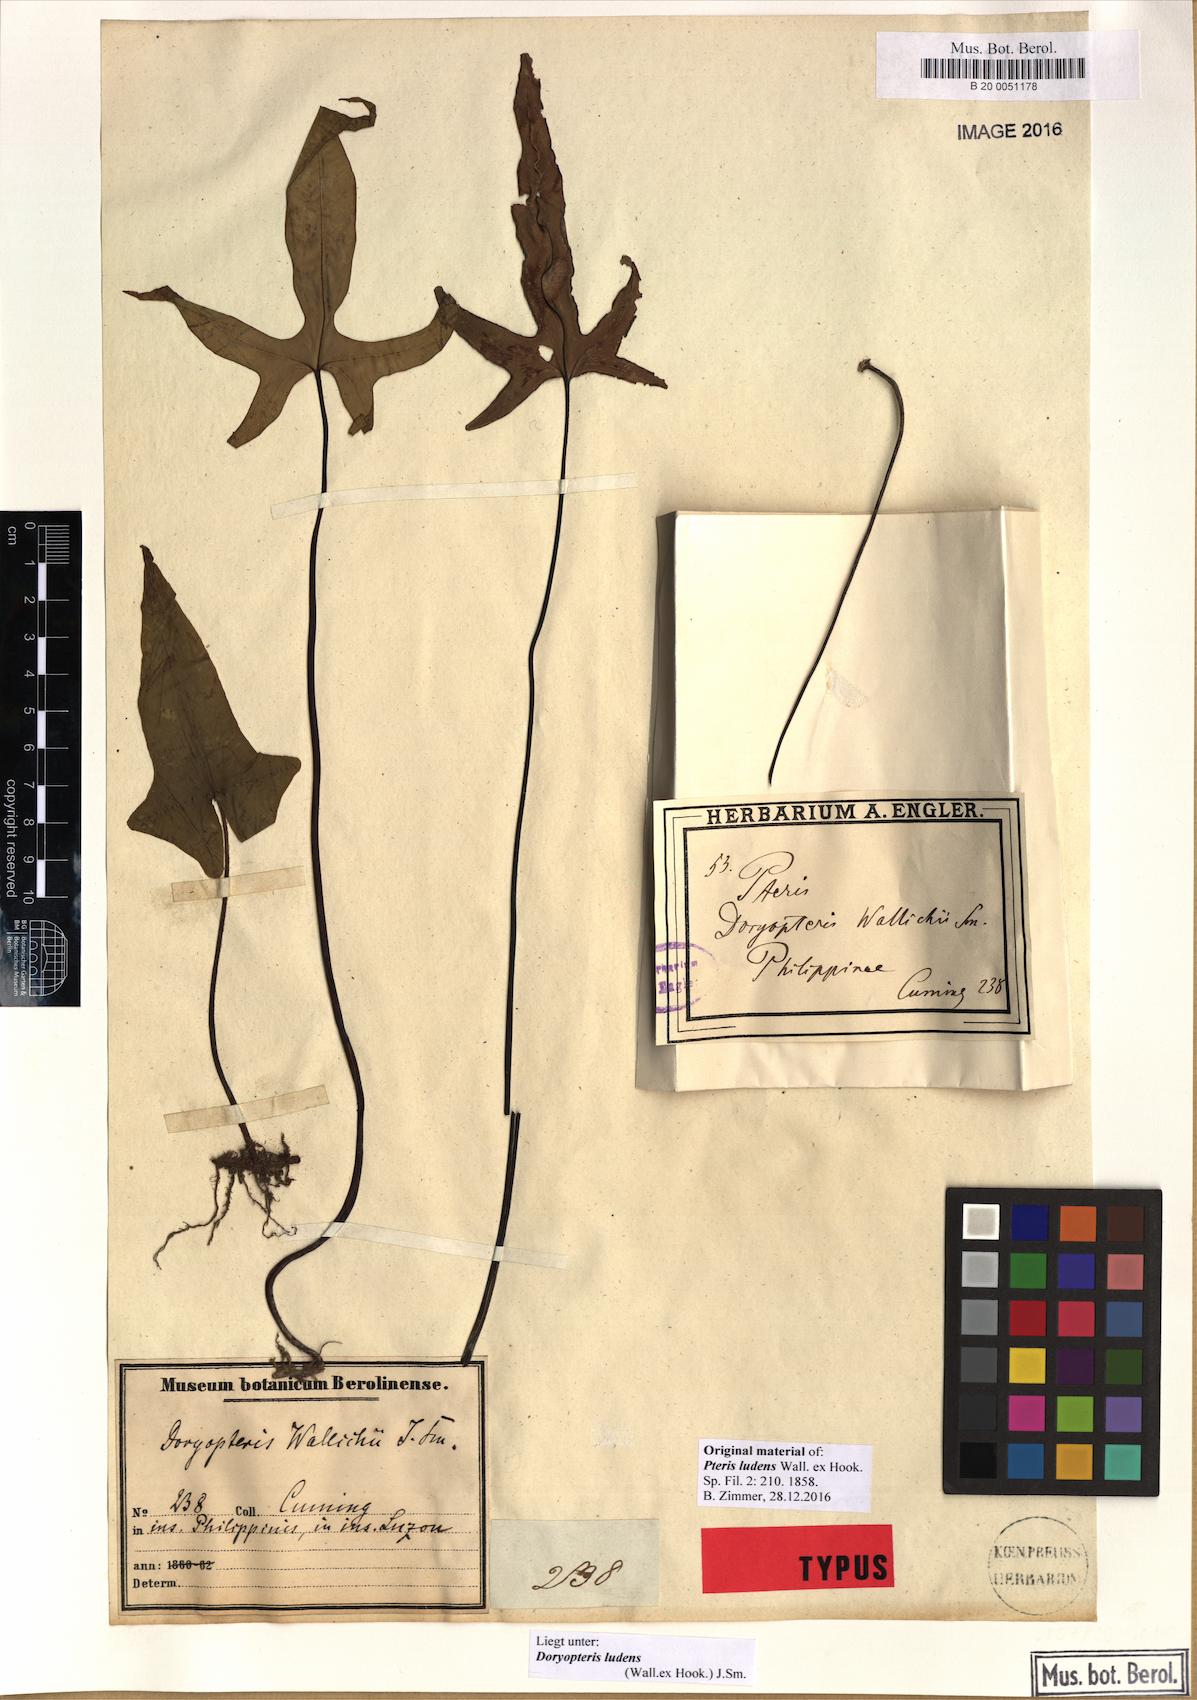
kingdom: Plantae
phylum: Tracheophyta
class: Polypodiopsida
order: Polypodiales
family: Pteridaceae
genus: Calciphilopteris
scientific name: Calciphilopteris ludens
